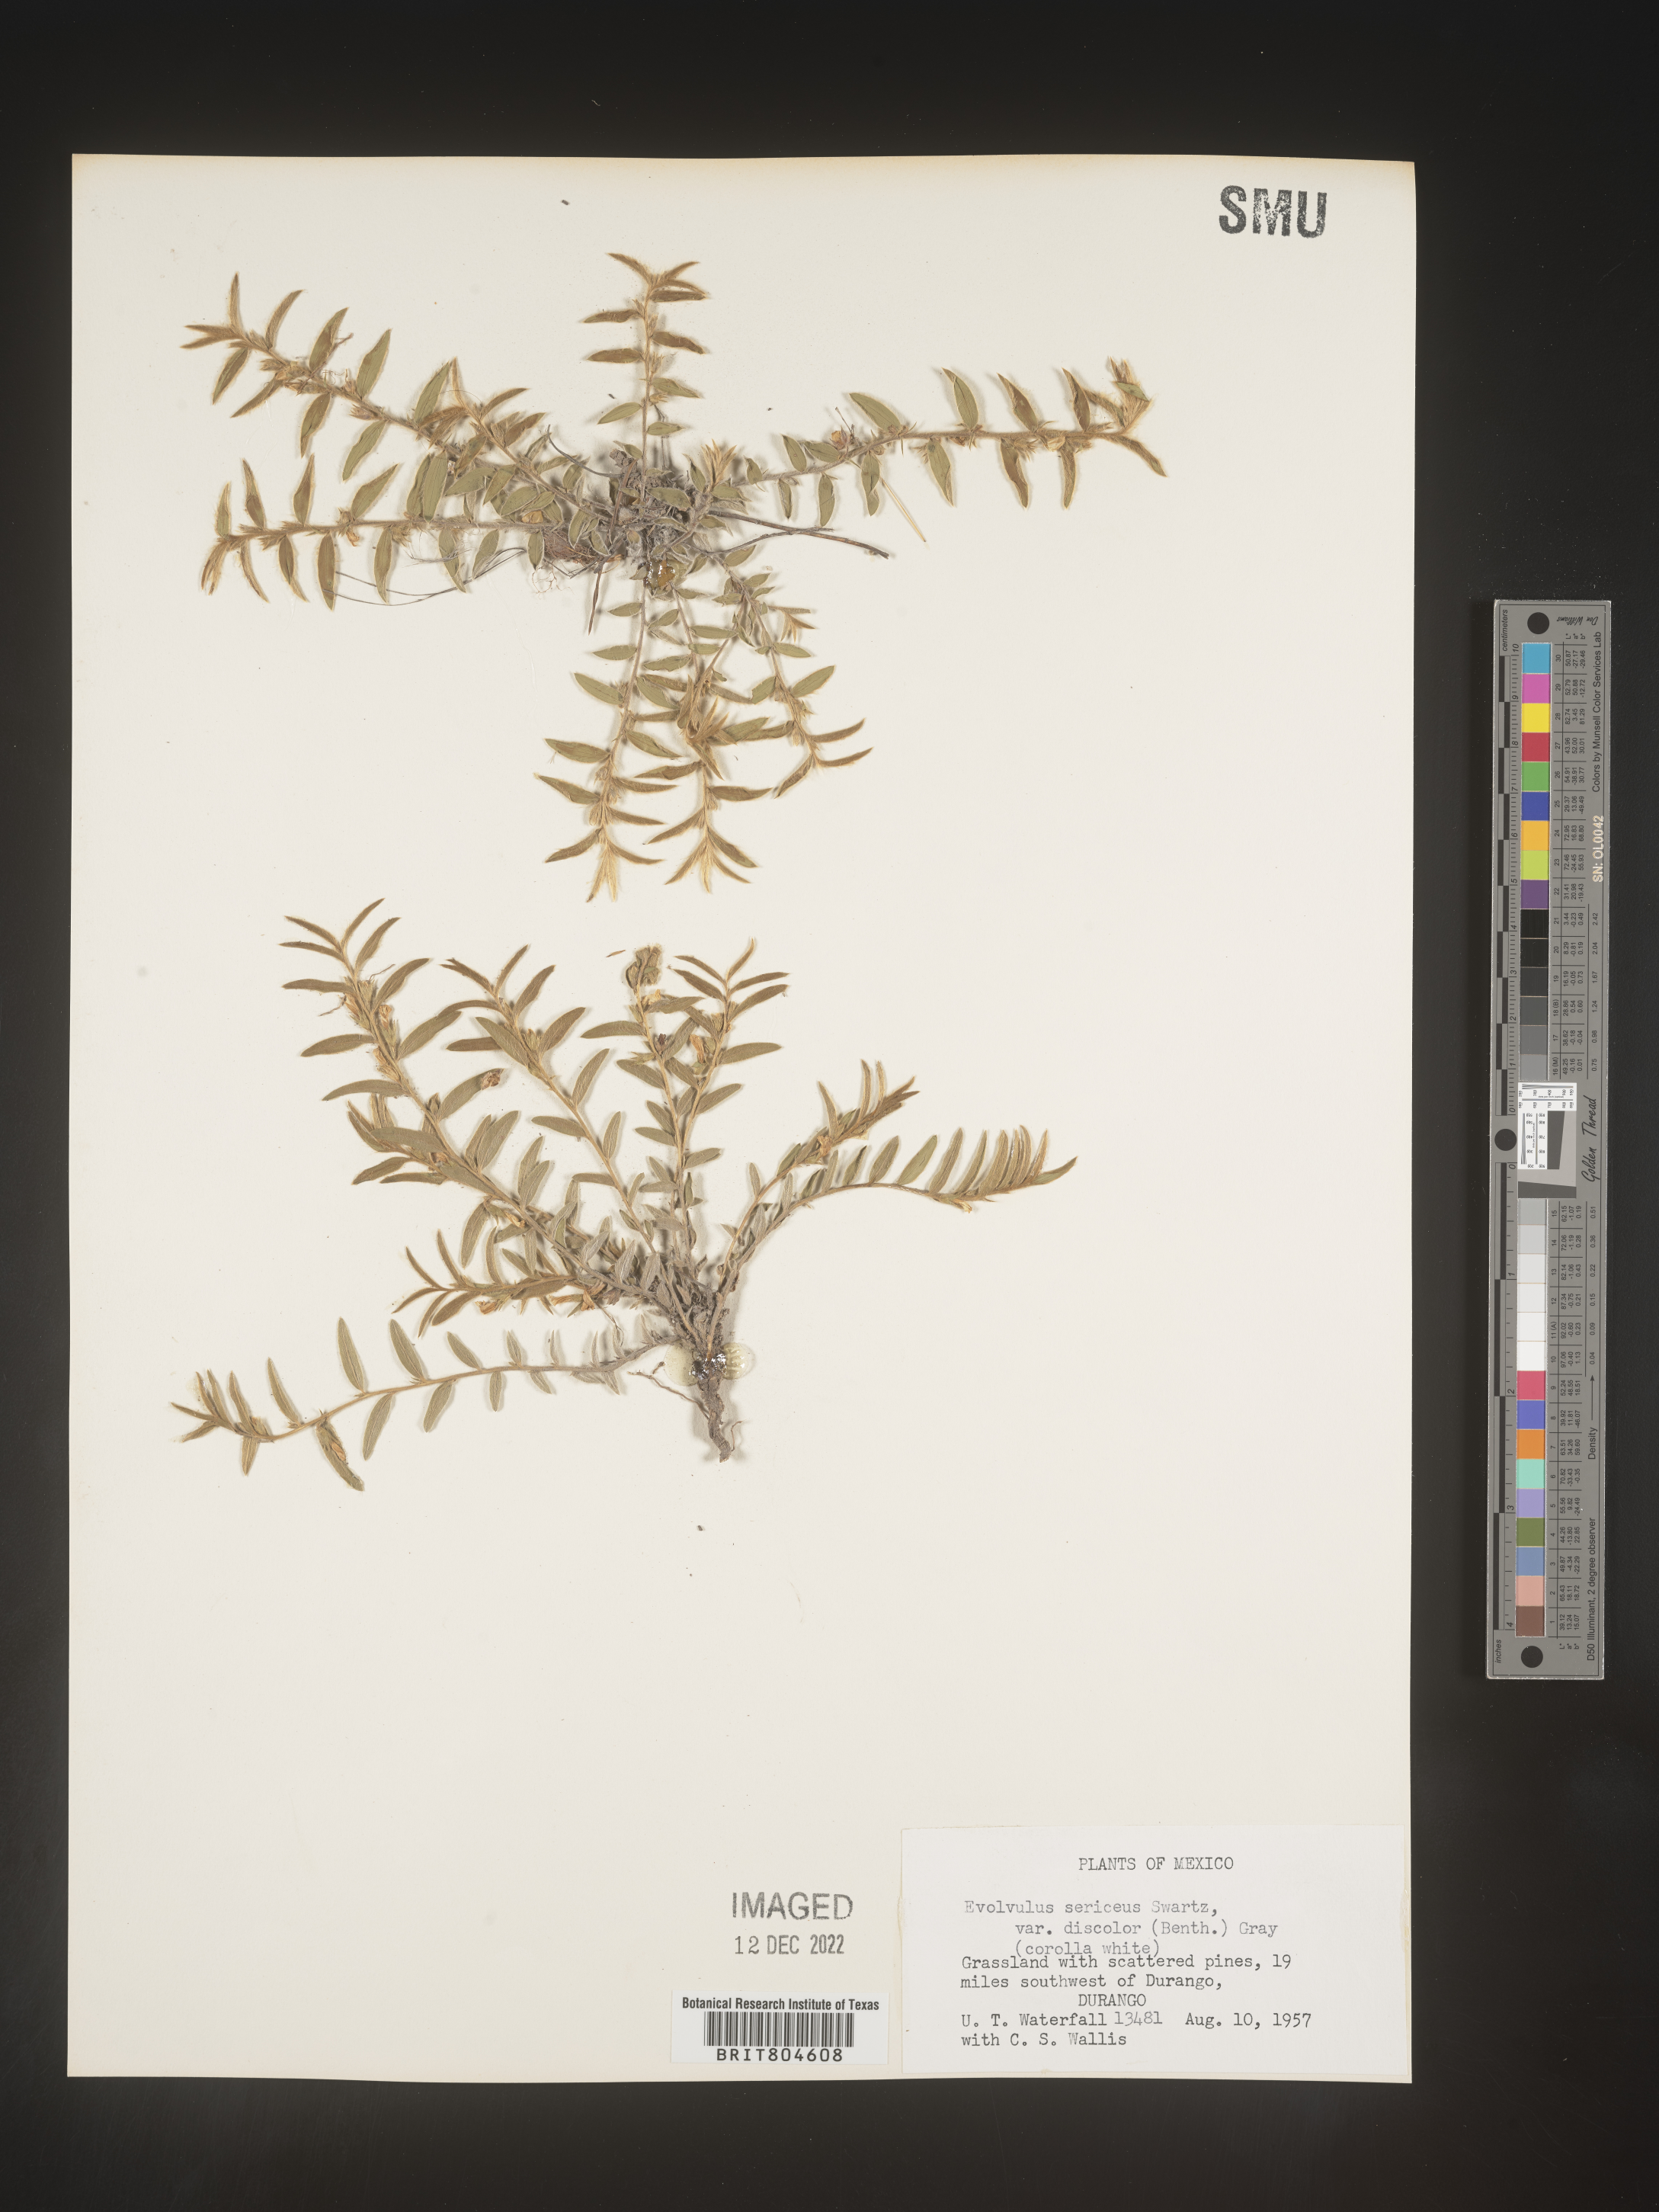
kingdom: Plantae
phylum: Tracheophyta
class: Magnoliopsida
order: Solanales
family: Convolvulaceae
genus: Evolvulus
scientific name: Evolvulus
